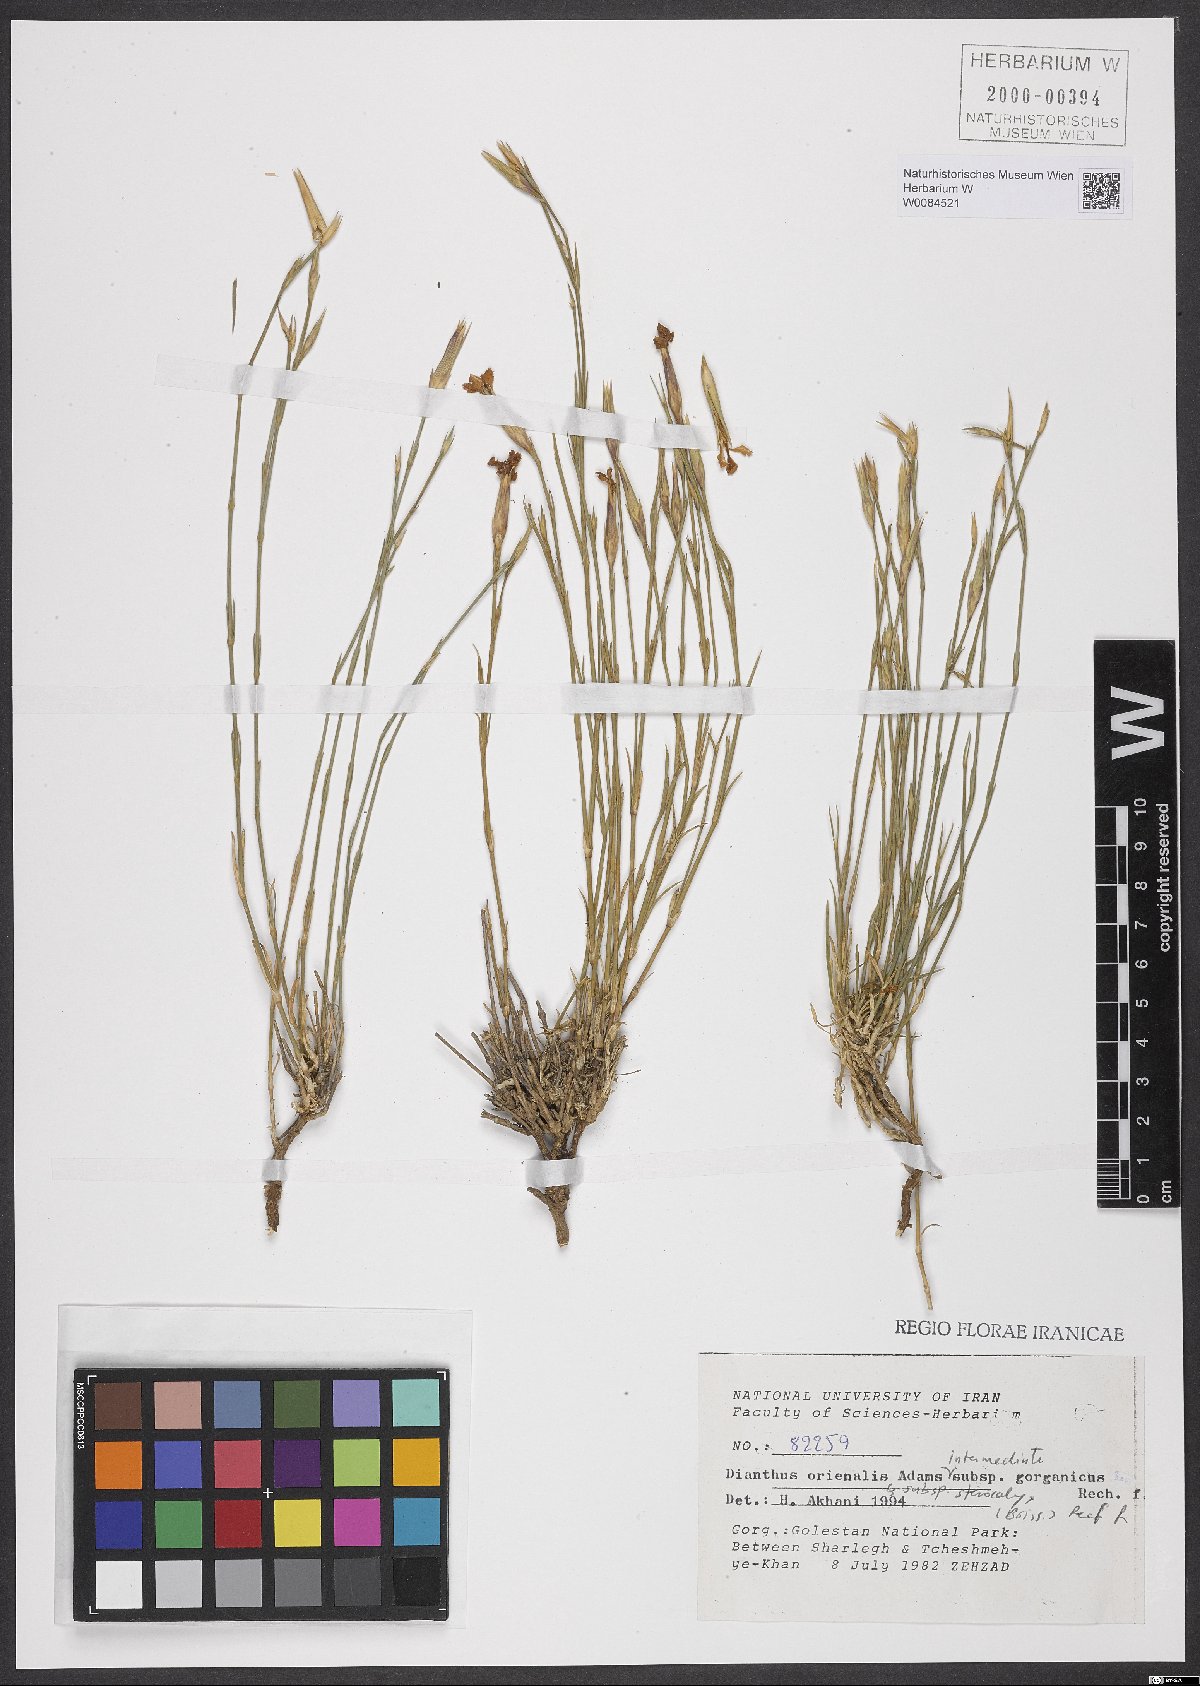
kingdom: Plantae
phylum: Tracheophyta
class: Magnoliopsida
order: Caryophyllales
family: Caryophyllaceae
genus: Dianthus
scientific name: Dianthus orientalis
